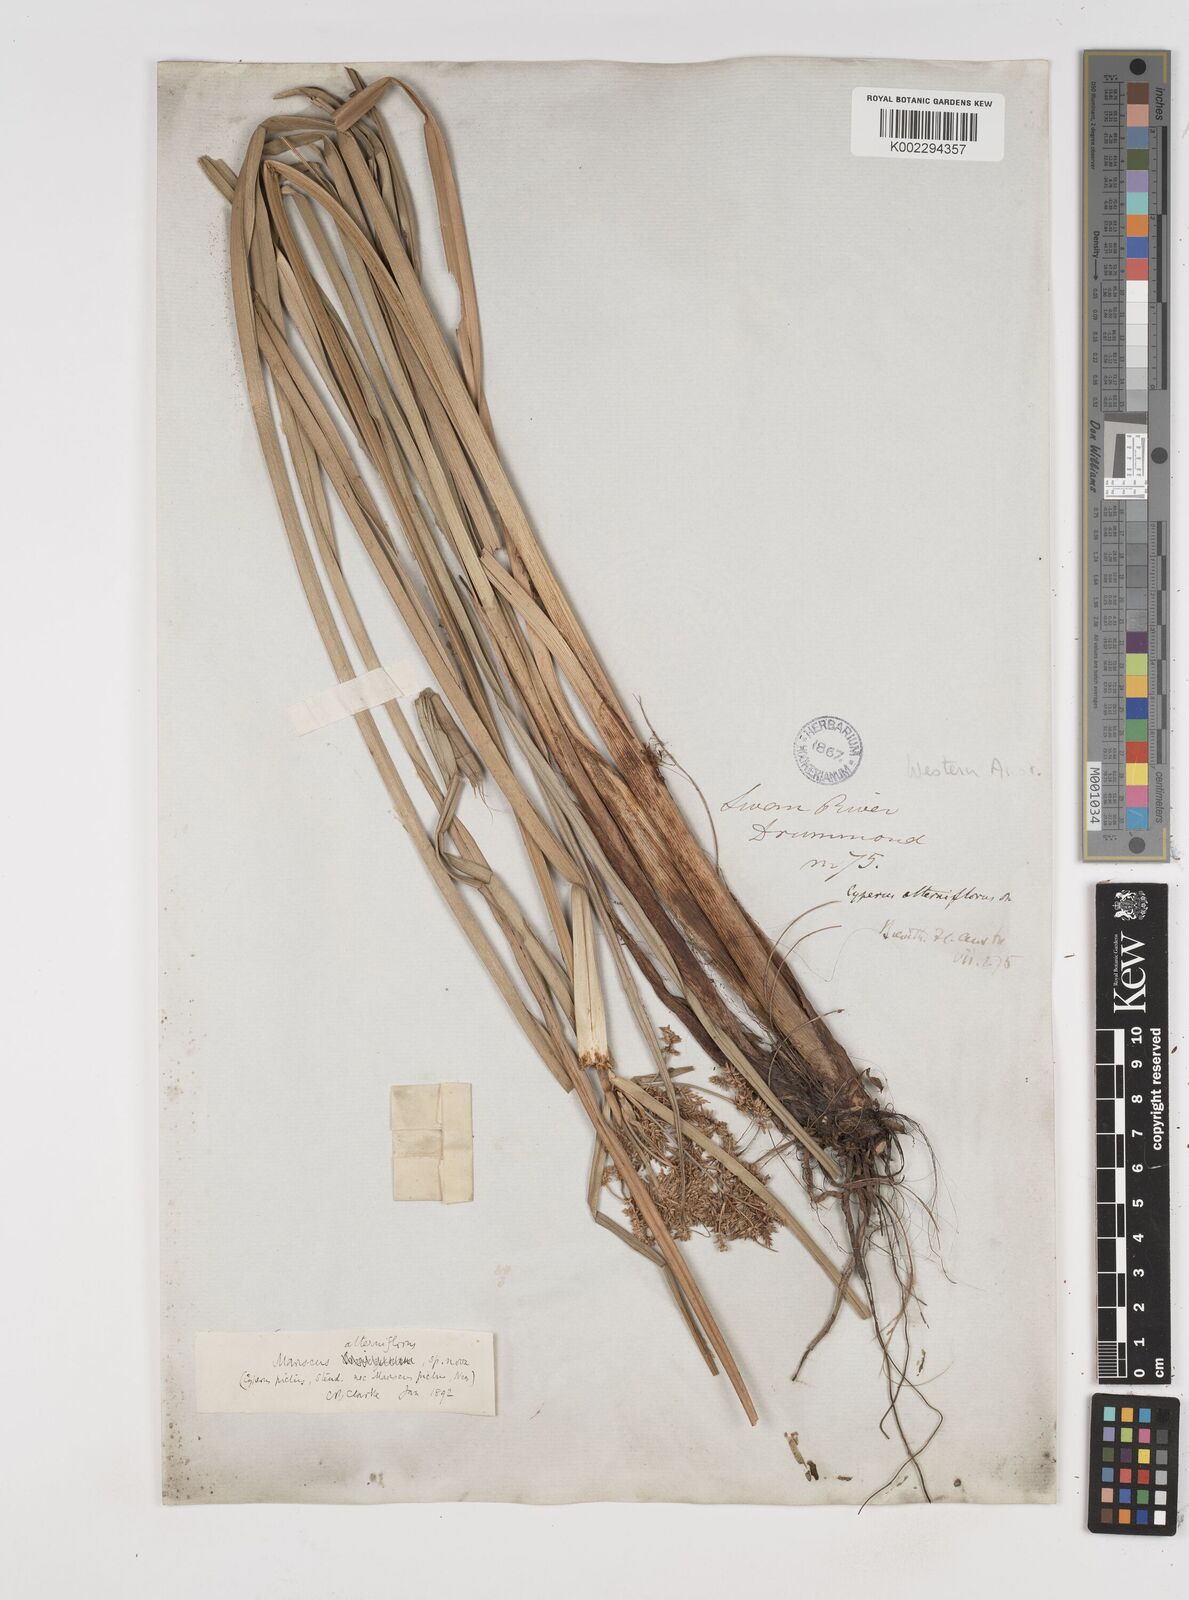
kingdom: Plantae
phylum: Tracheophyta
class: Liliopsida
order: Poales
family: Cyperaceae
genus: Cyperus
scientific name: Cyperus alterniflorus
